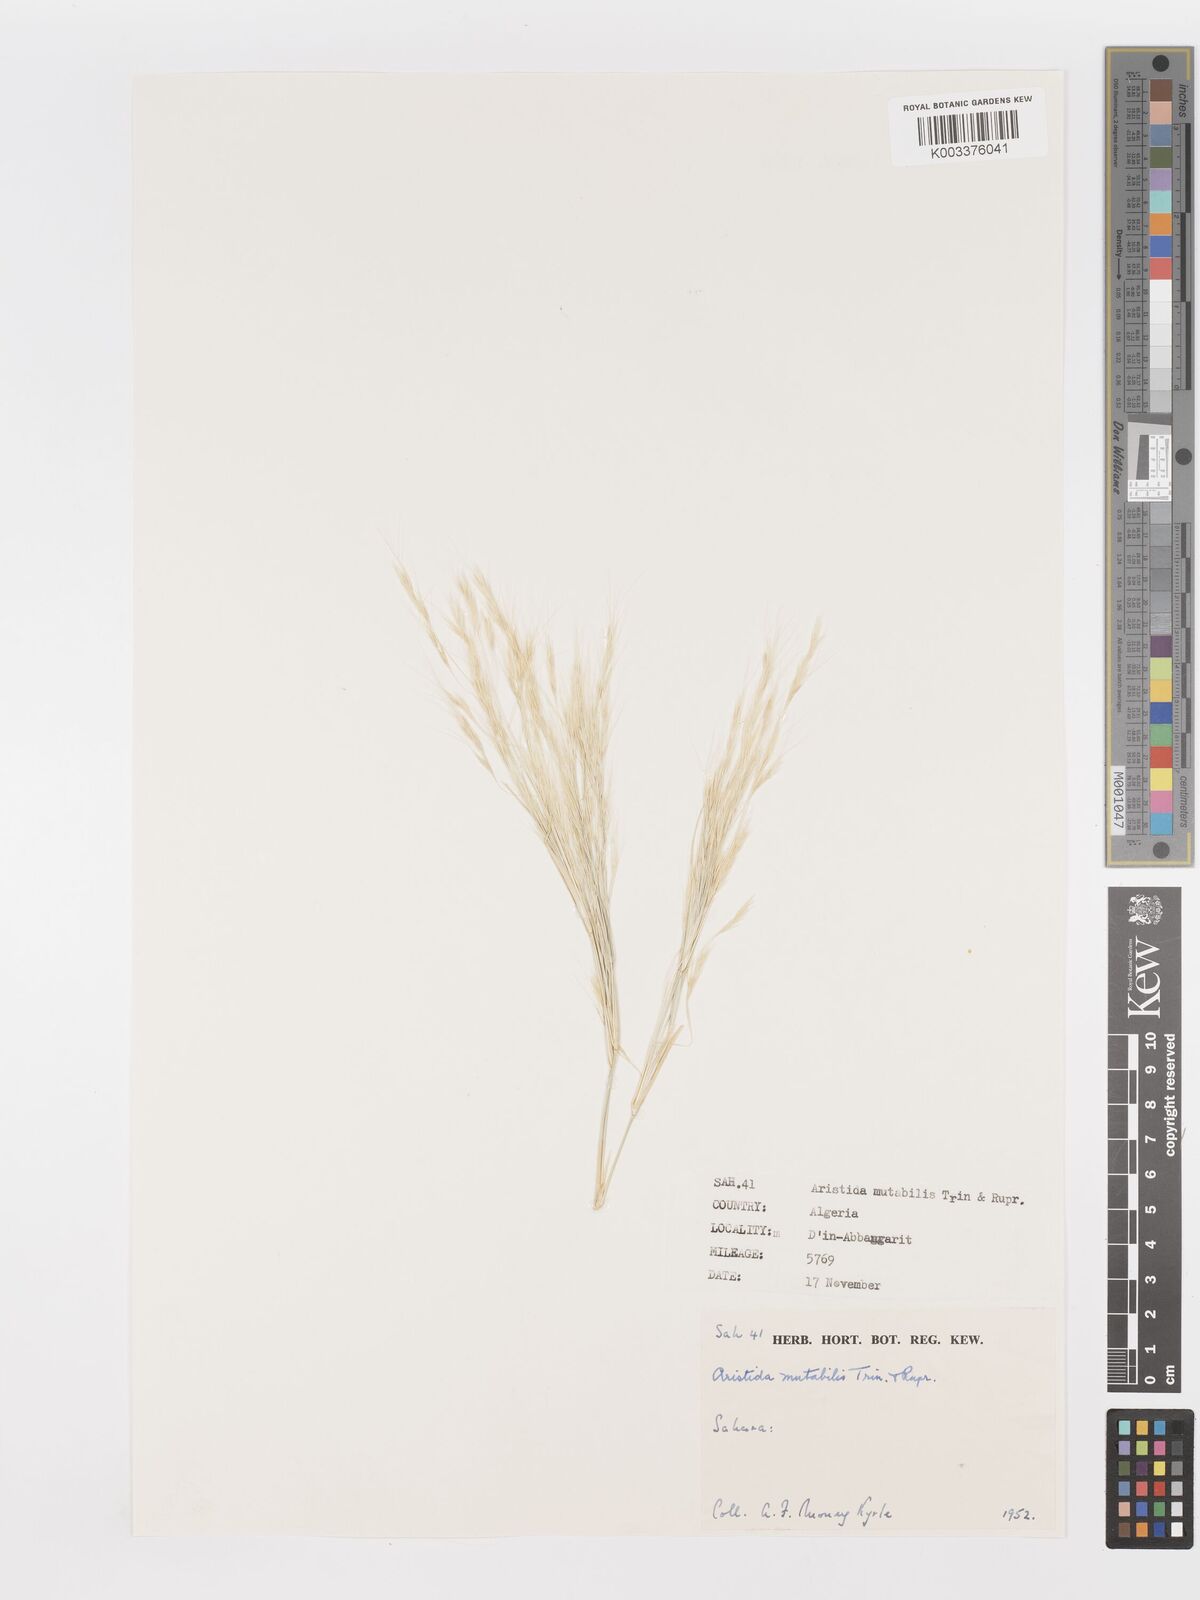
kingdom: Plantae
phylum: Tracheophyta
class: Liliopsida
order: Poales
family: Poaceae
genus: Aristida
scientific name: Aristida mutabilis
